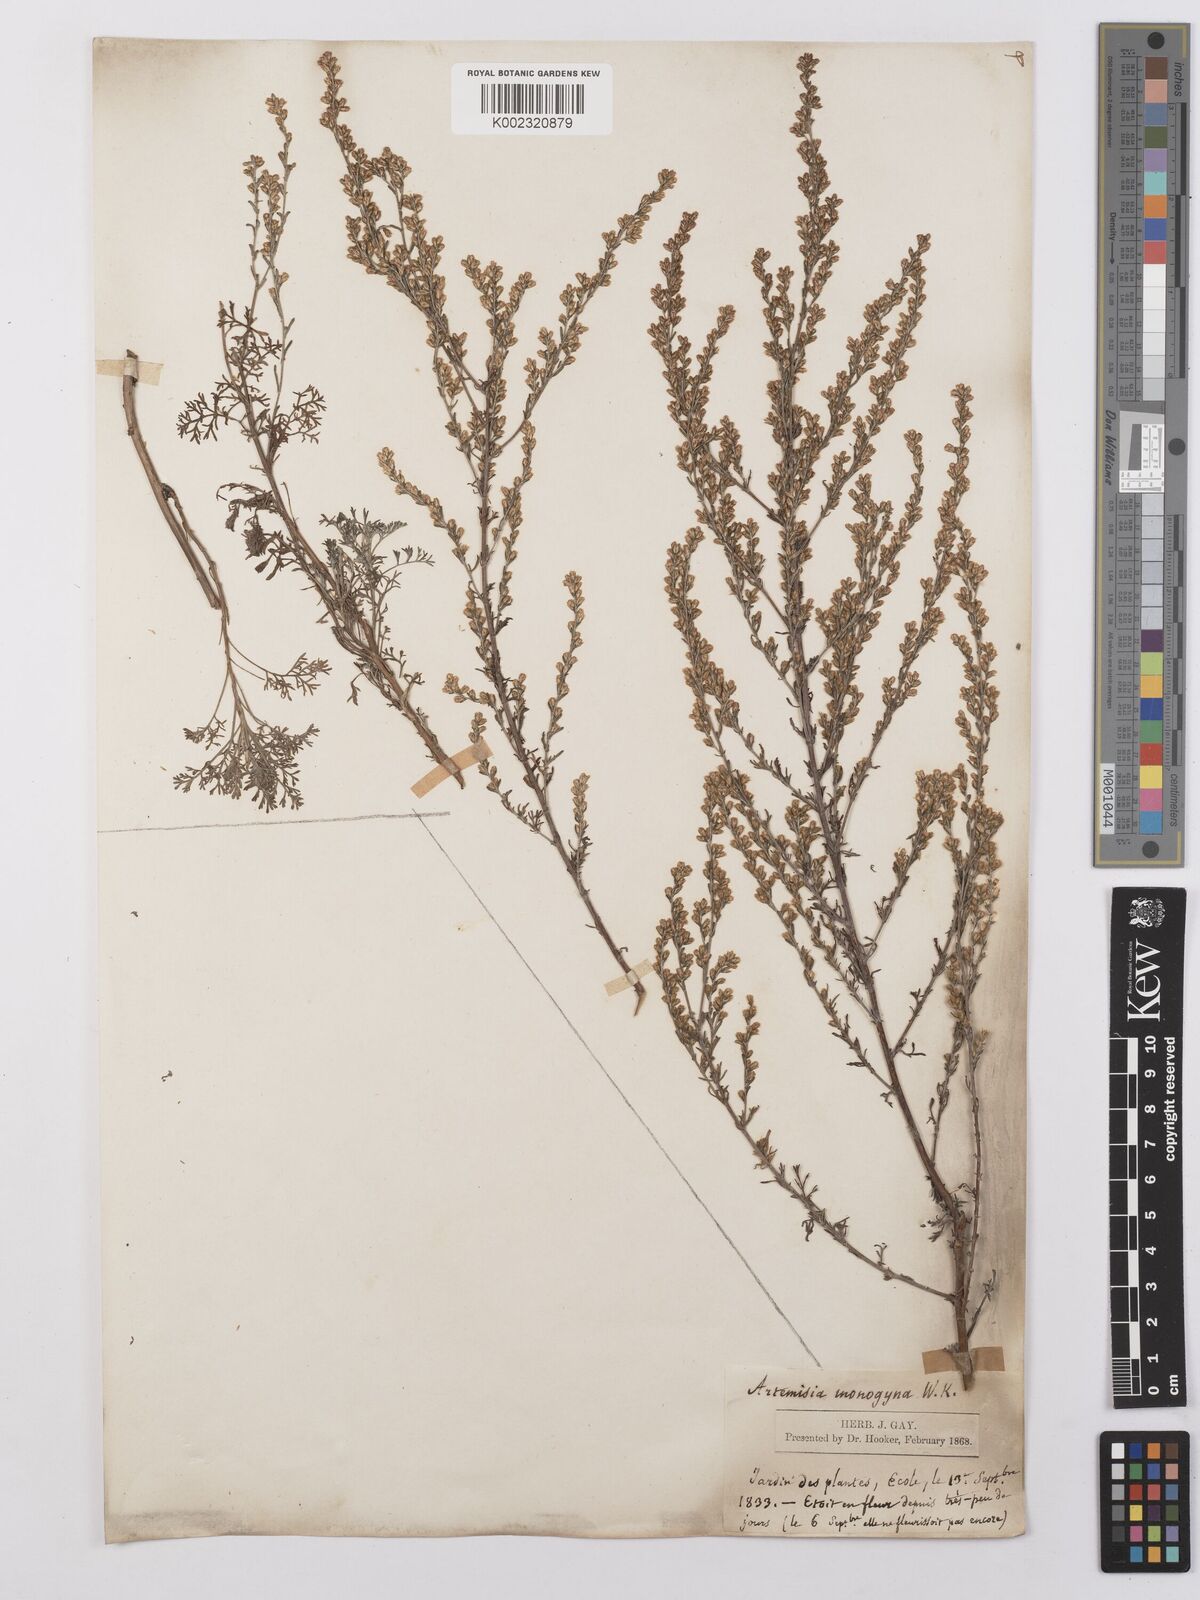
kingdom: Plantae
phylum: Tracheophyta
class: Magnoliopsida
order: Asterales
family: Asteraceae
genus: Artemisia
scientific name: Artemisia santonicum
